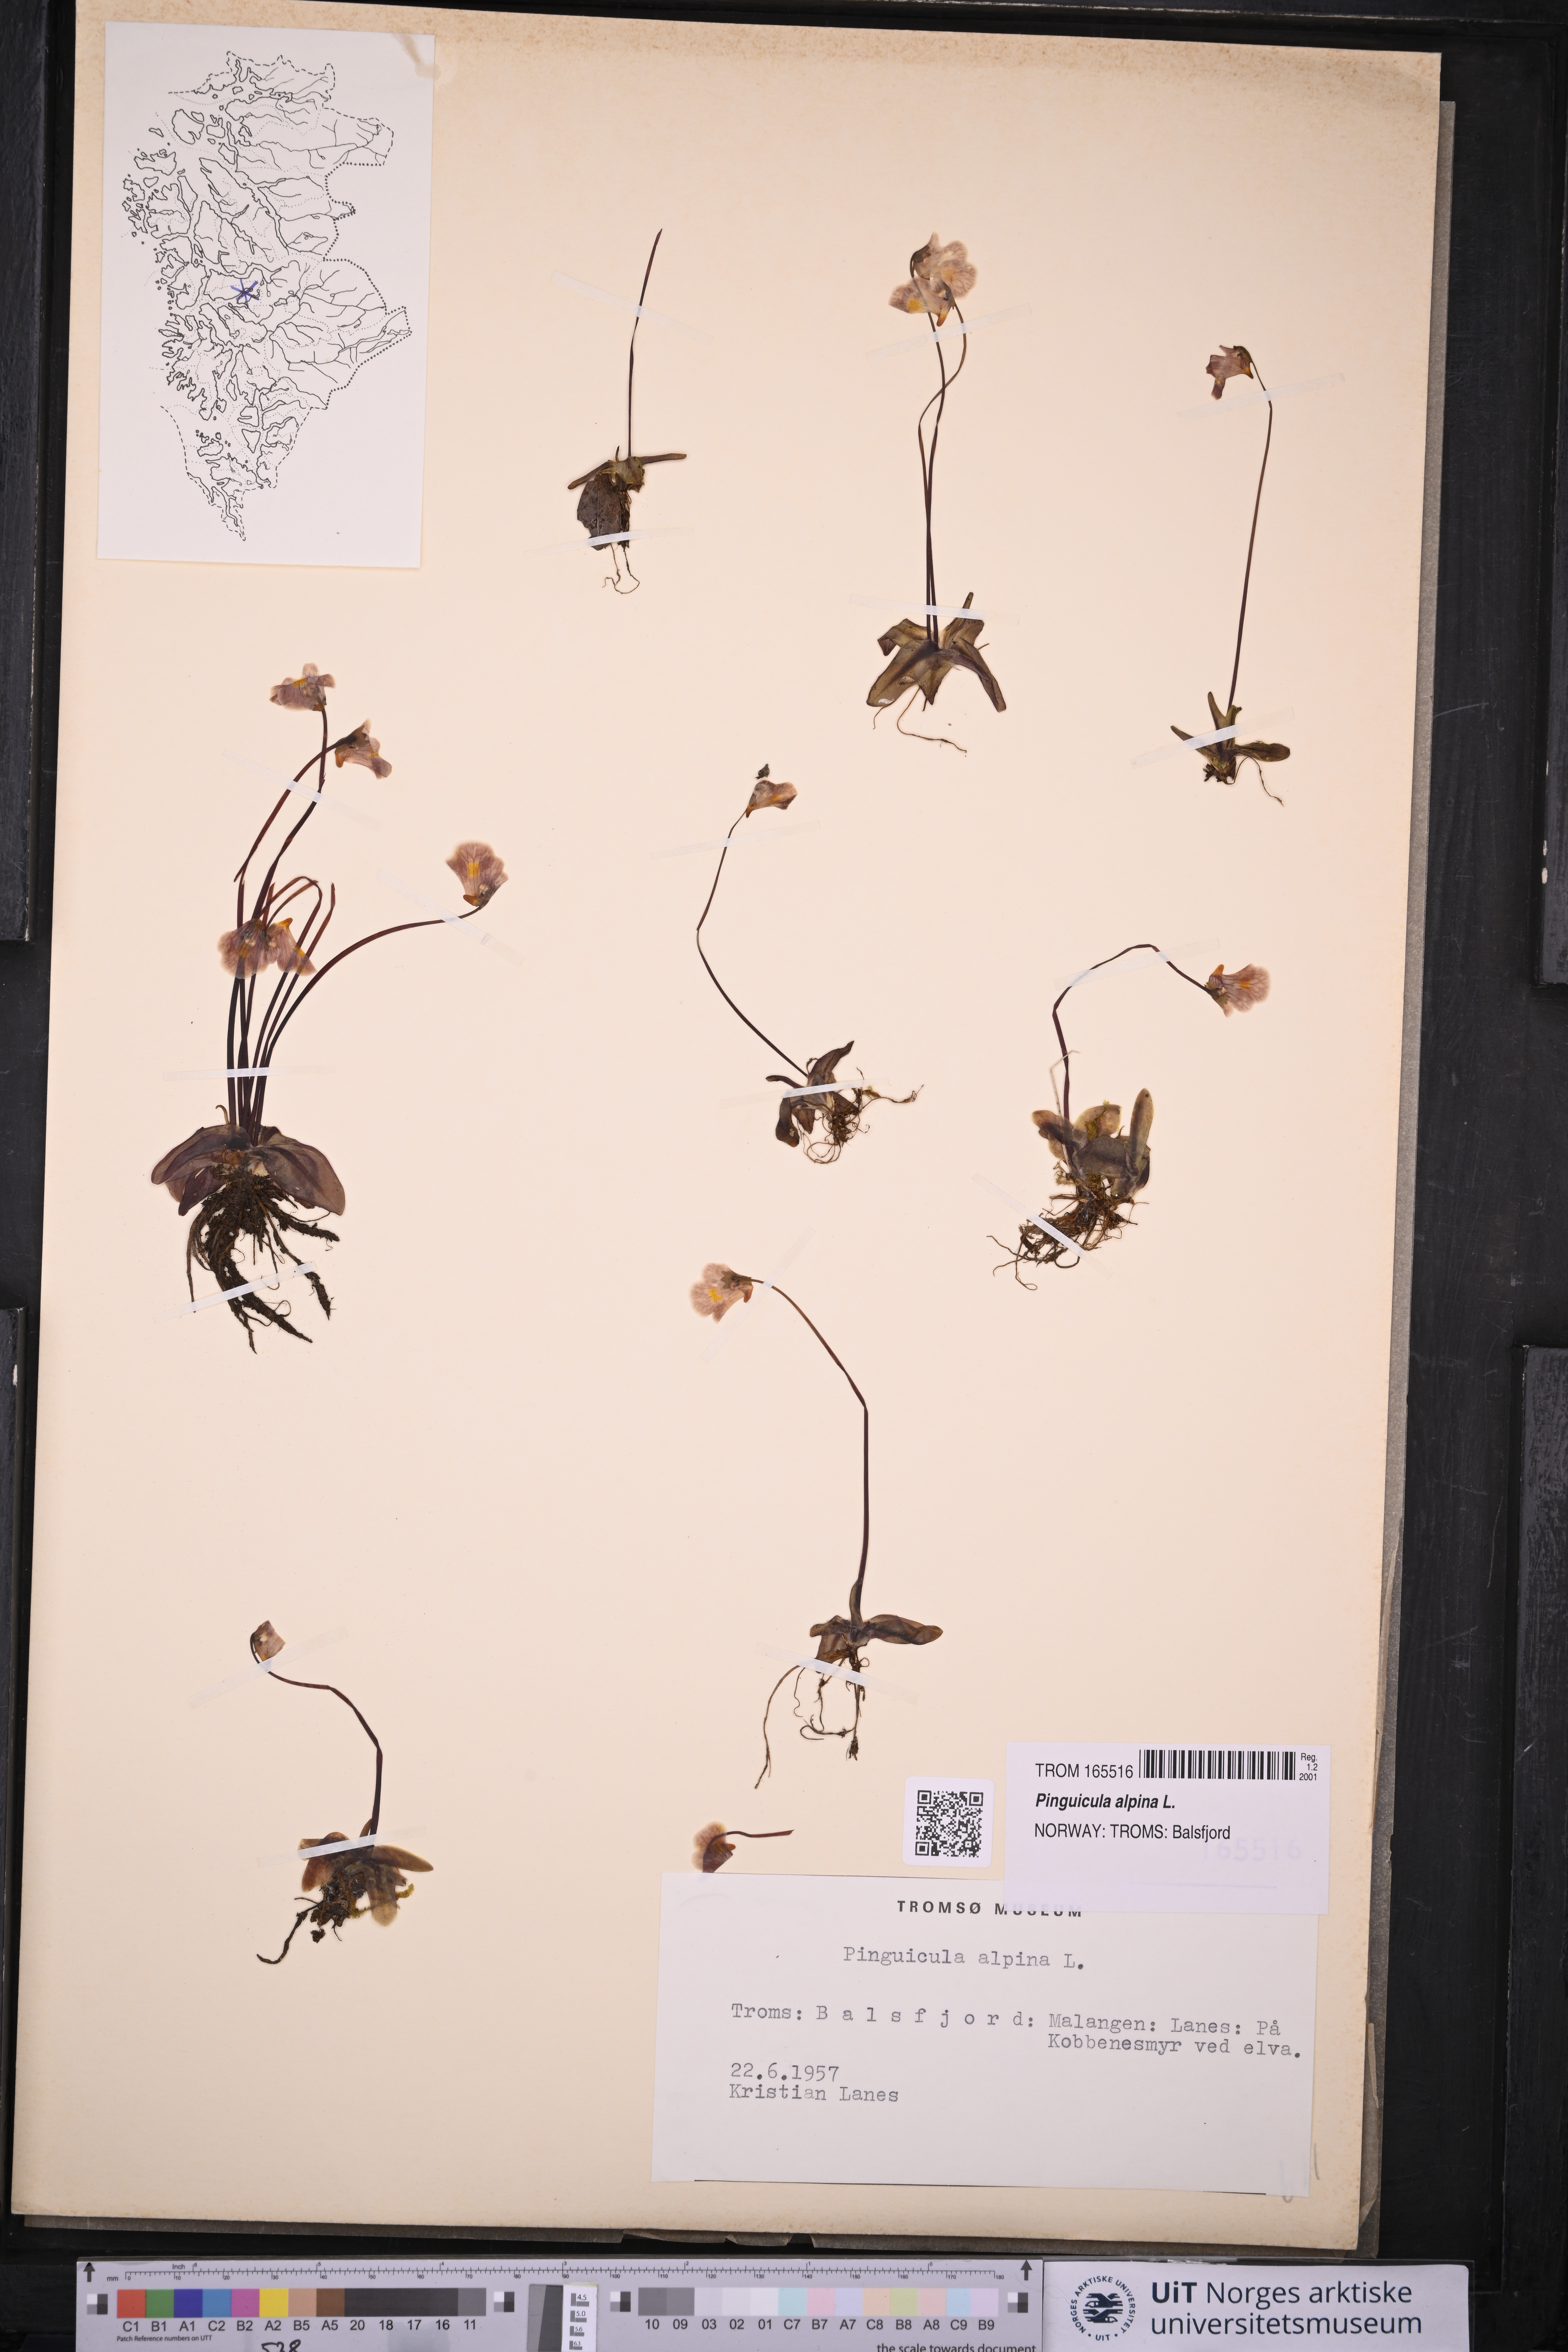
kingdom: Plantae
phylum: Tracheophyta
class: Magnoliopsida
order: Lamiales
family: Lentibulariaceae
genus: Pinguicula
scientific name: Pinguicula alpina
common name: Alpine butterwort
